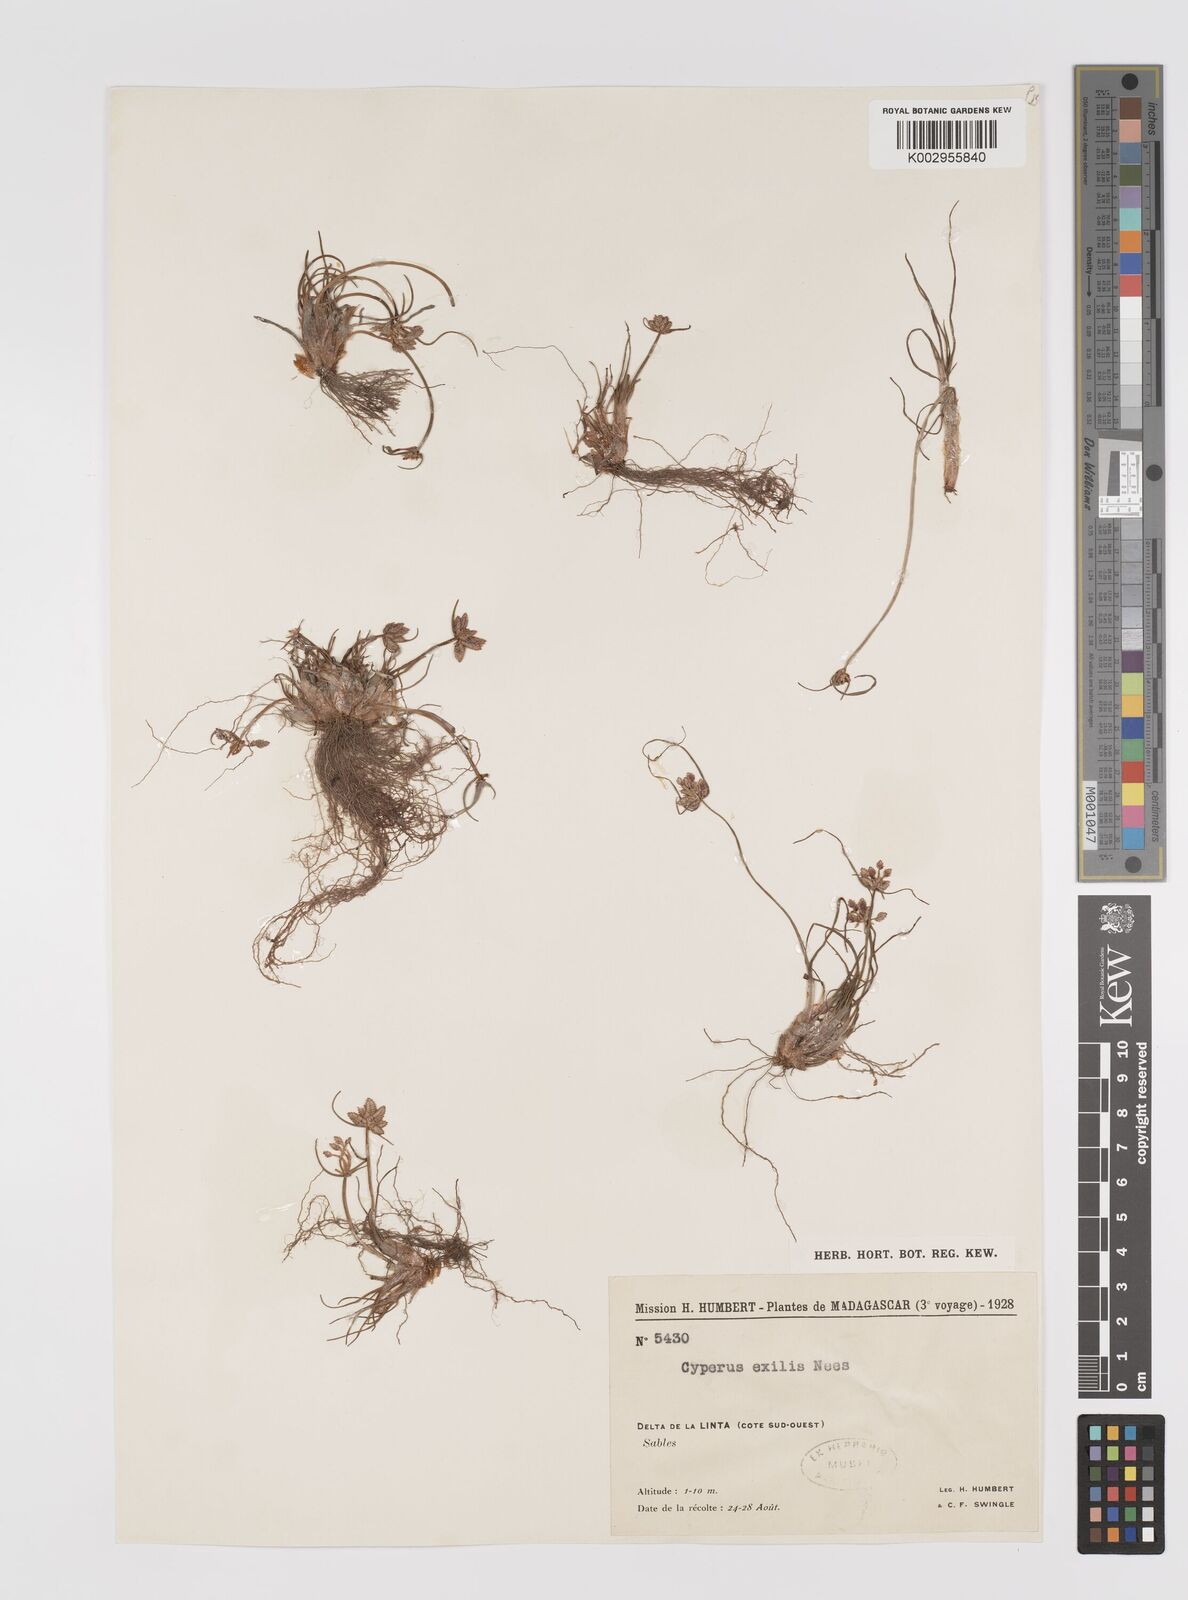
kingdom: Plantae
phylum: Tracheophyta
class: Liliopsida
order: Poales
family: Cyperaceae
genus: Cyperus
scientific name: Cyperus esculentus
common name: Yellow nutsedge
